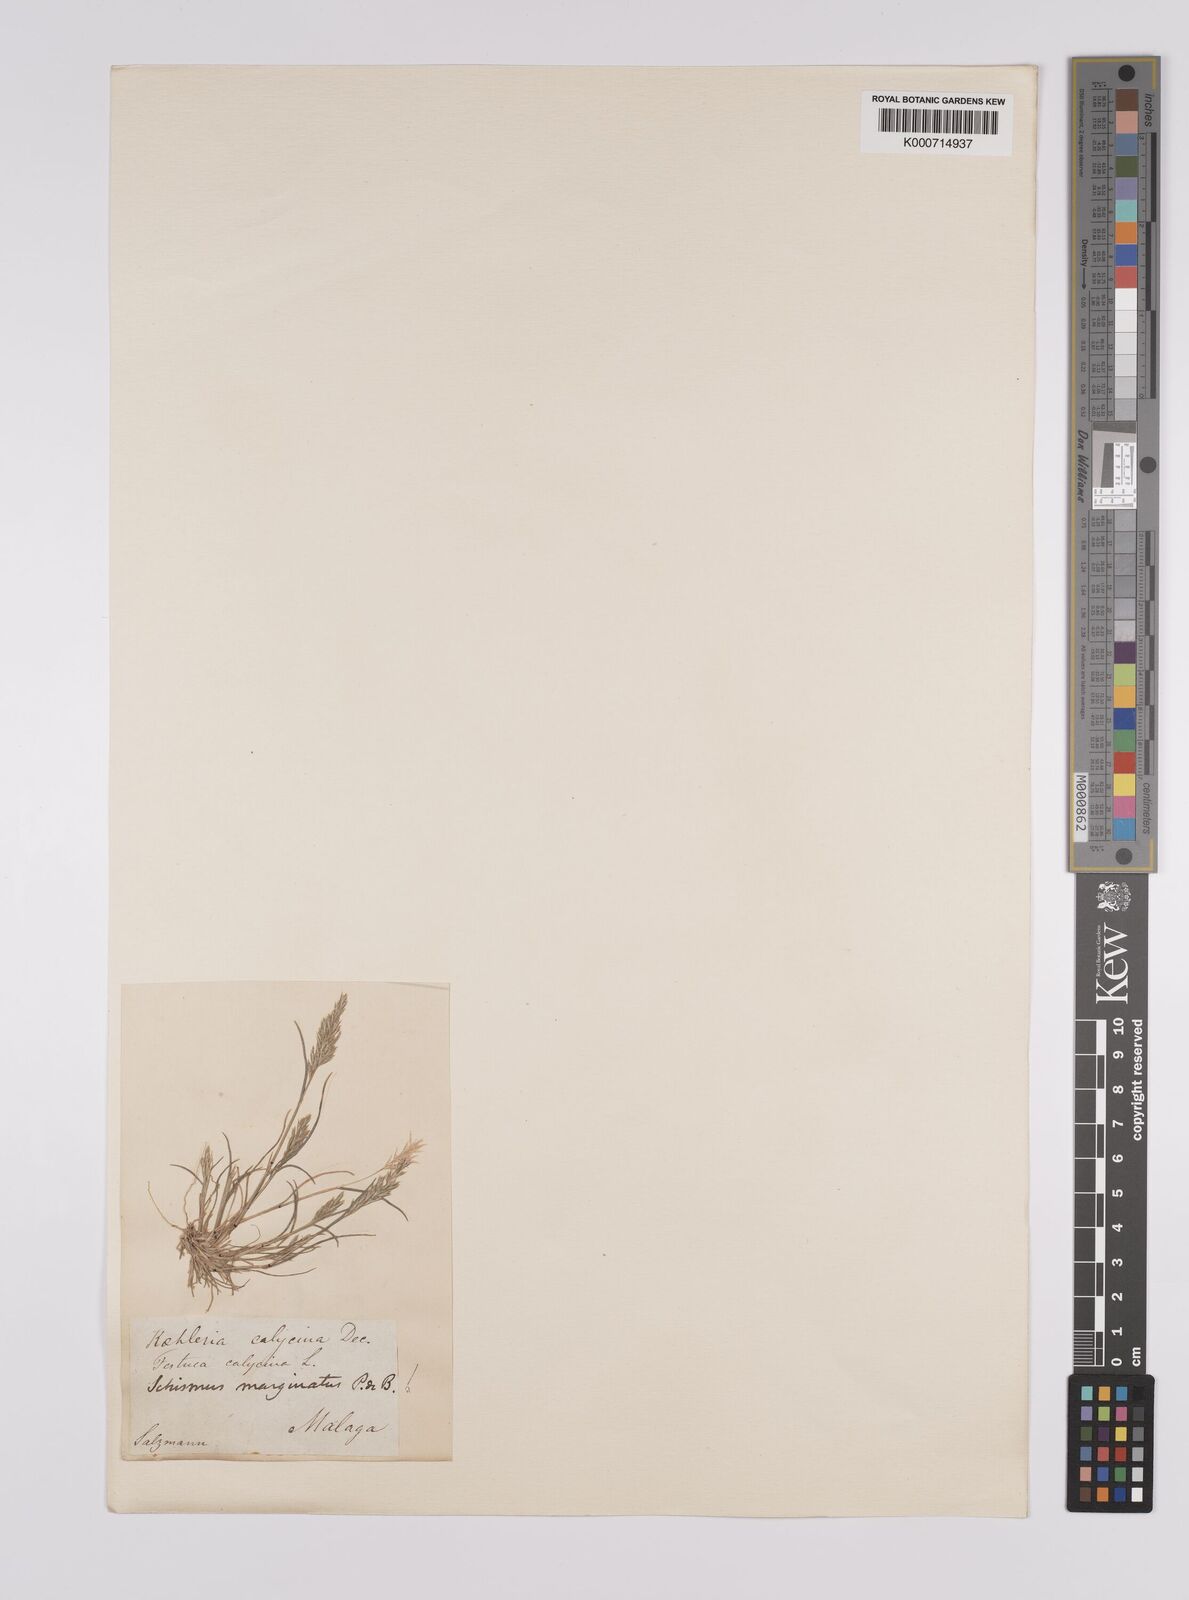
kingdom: Plantae
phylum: Tracheophyta
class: Liliopsida
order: Poales
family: Poaceae
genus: Schismus
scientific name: Schismus barbatus
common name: Kelch-grass
